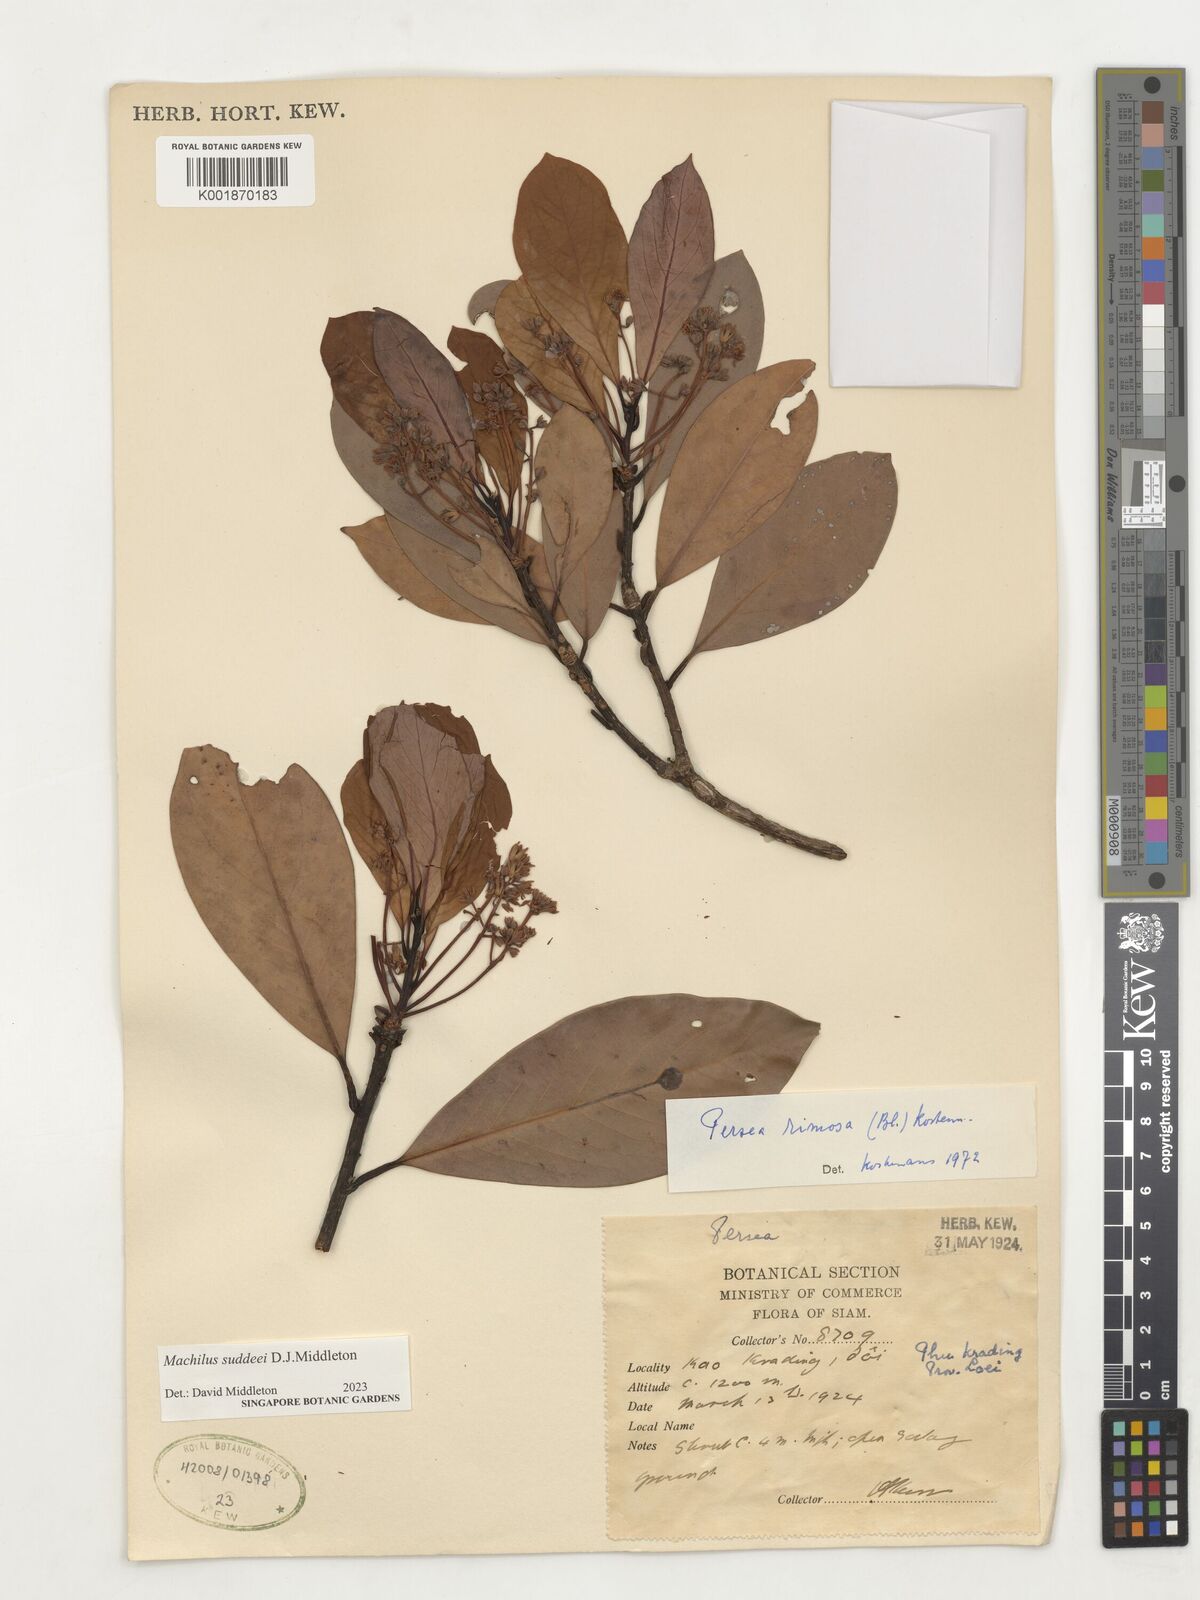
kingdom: Plantae
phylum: Tracheophyta
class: Magnoliopsida
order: Laurales
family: Lauraceae
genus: Machilus
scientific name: Machilus
